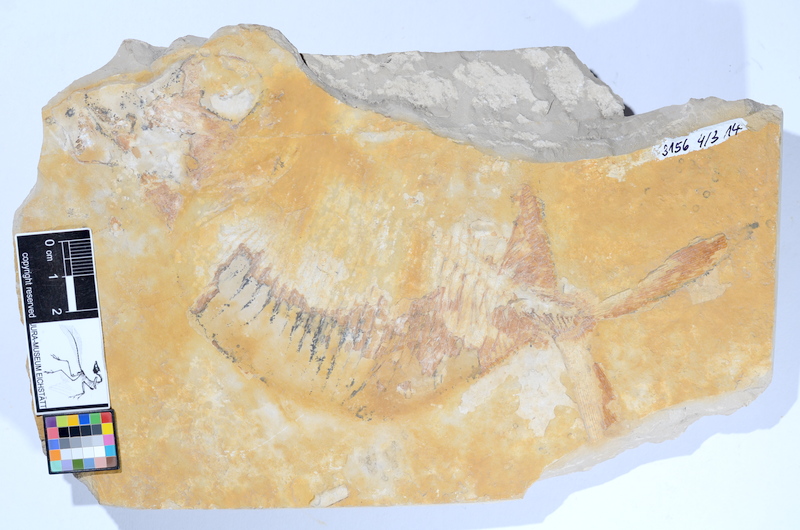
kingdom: Animalia
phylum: Chordata
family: Gyrodontidae
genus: Gyrodus
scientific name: Gyrodus hexagonus
